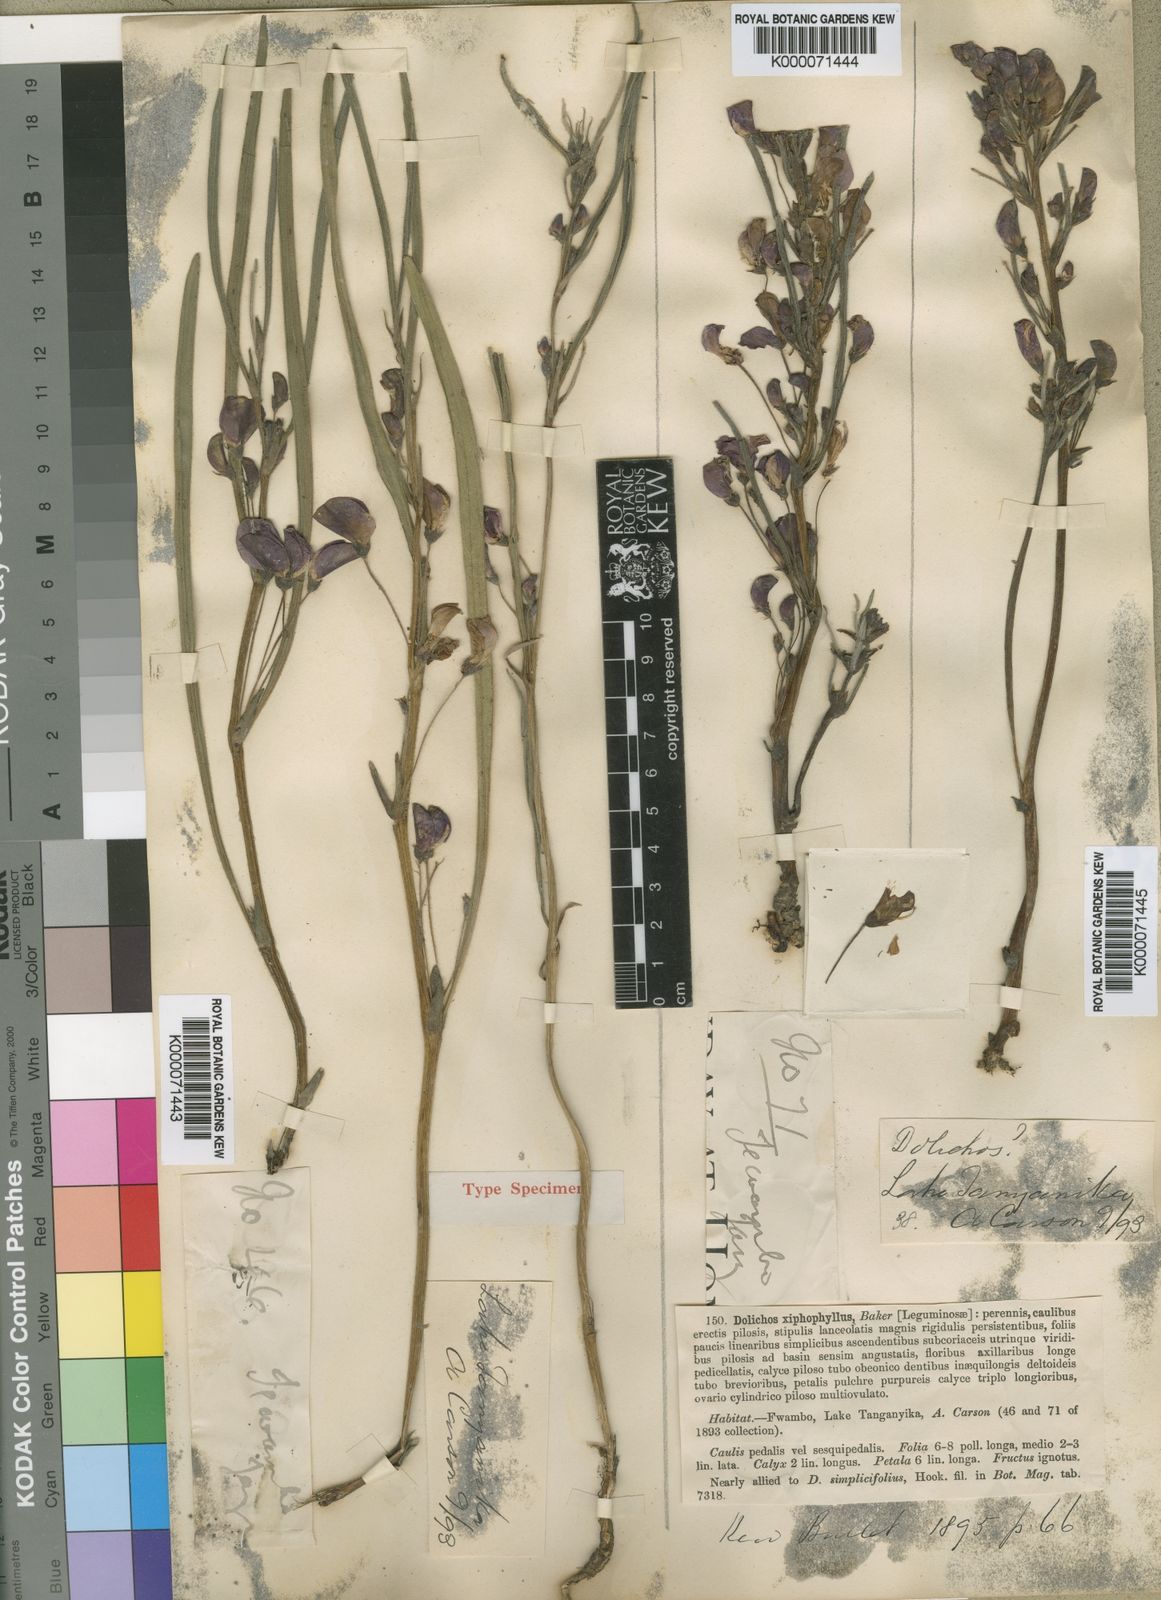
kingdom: Plantae
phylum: Tracheophyta
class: Magnoliopsida
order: Fabales
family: Fabaceae
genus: Dolichos
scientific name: Dolichos xiphophyllus
